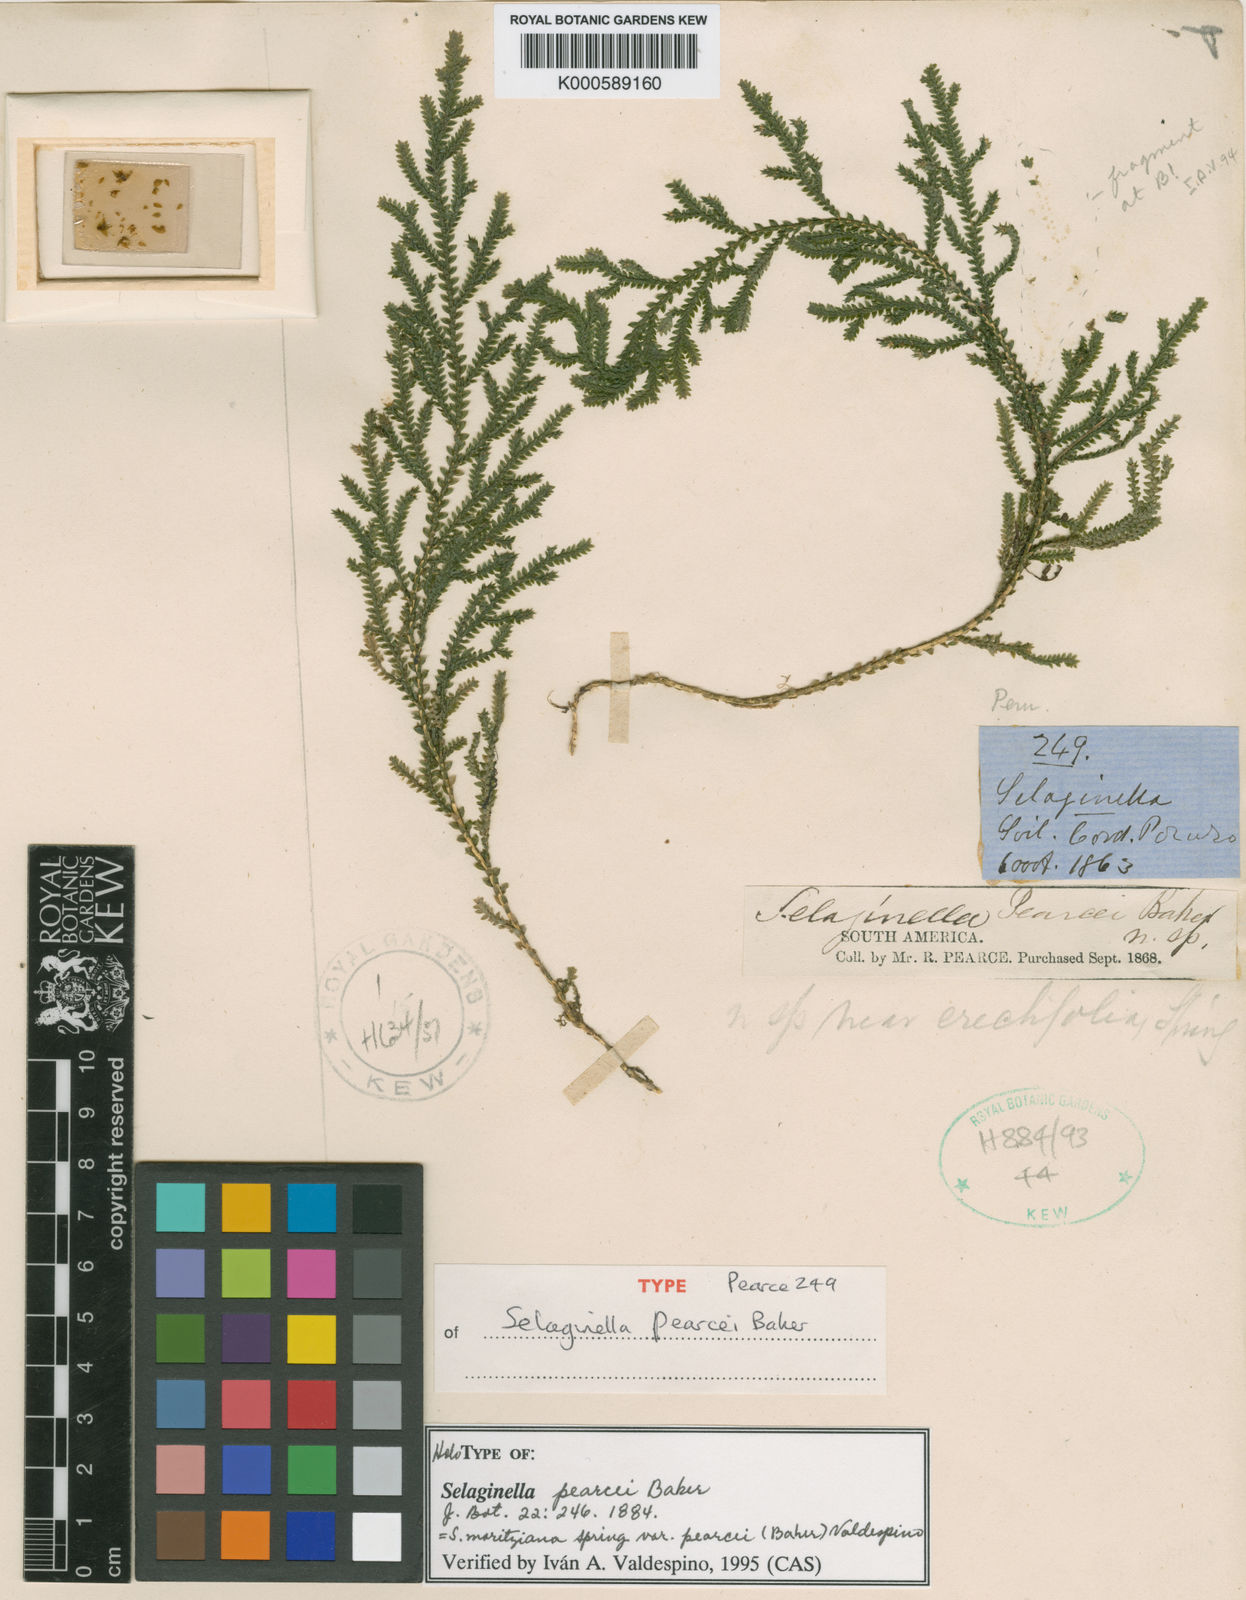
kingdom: Plantae
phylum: Tracheophyta
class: Lycopodiopsida
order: Selaginellales
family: Selaginellaceae
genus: Selaginella
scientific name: Selaginella moritziana
